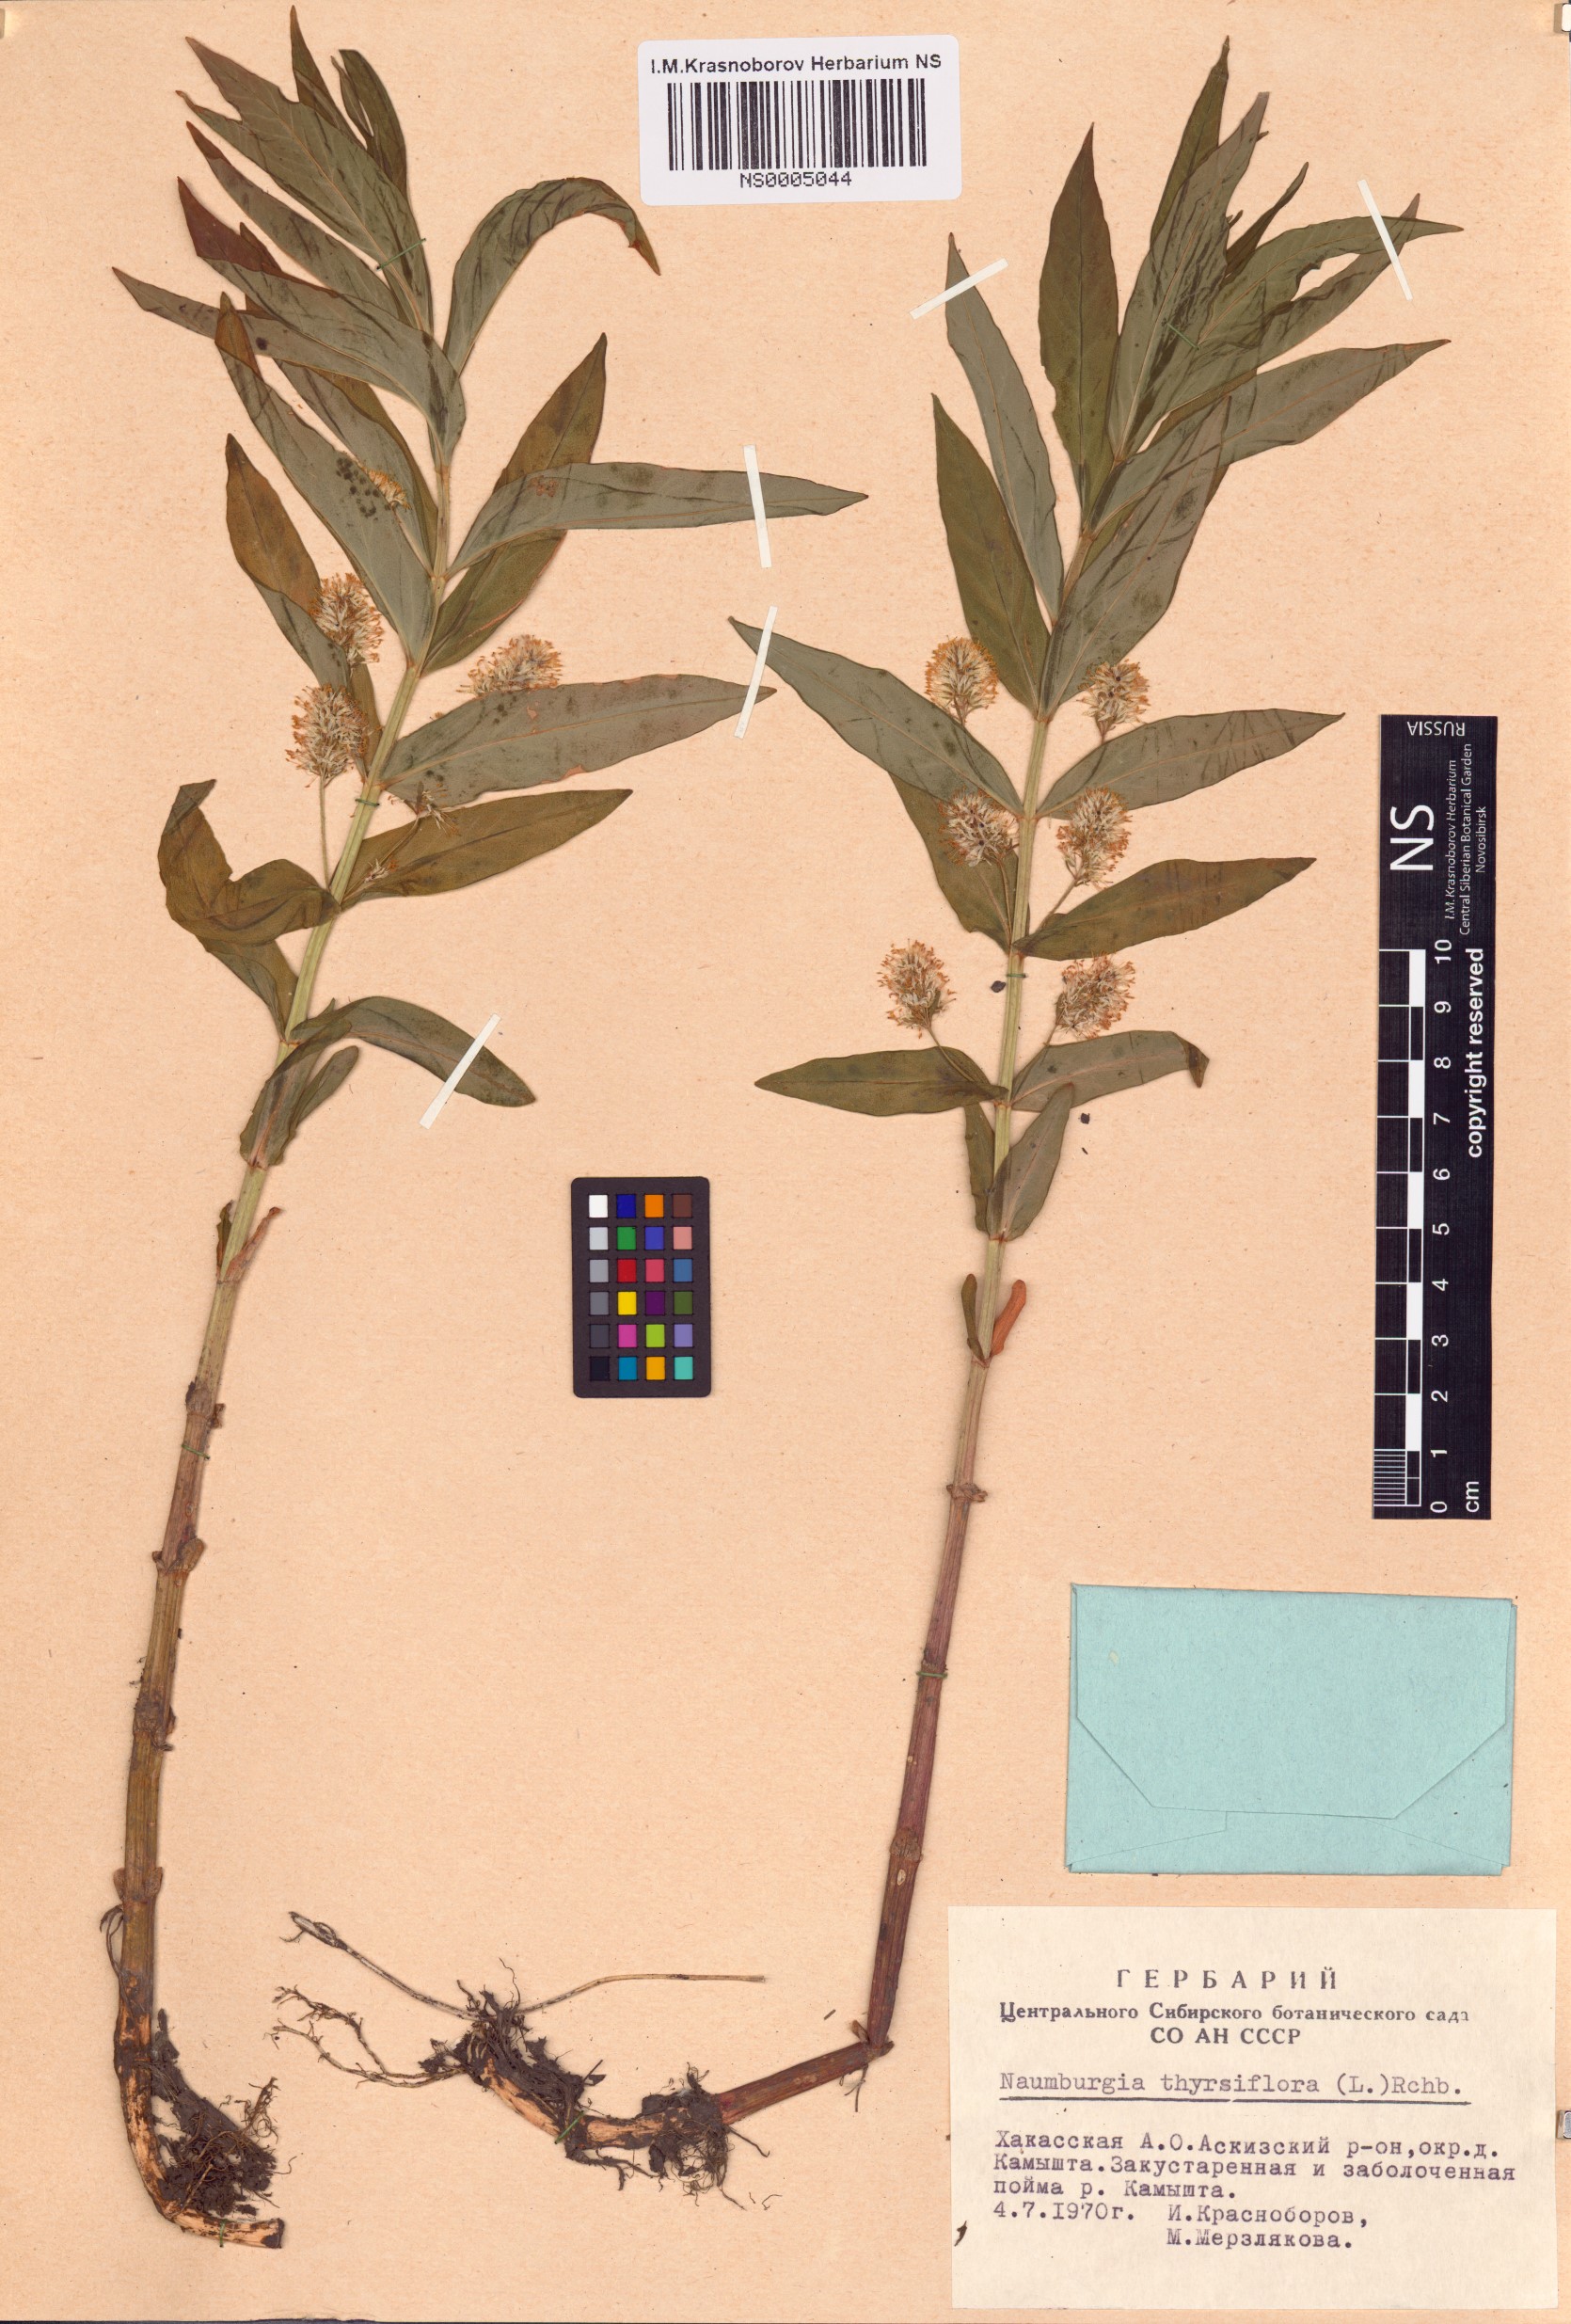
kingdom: Plantae
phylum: Tracheophyta
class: Magnoliopsida
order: Ericales
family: Primulaceae
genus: Lysimachia
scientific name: Lysimachia thyrsiflora
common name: Tufted loosestrife
